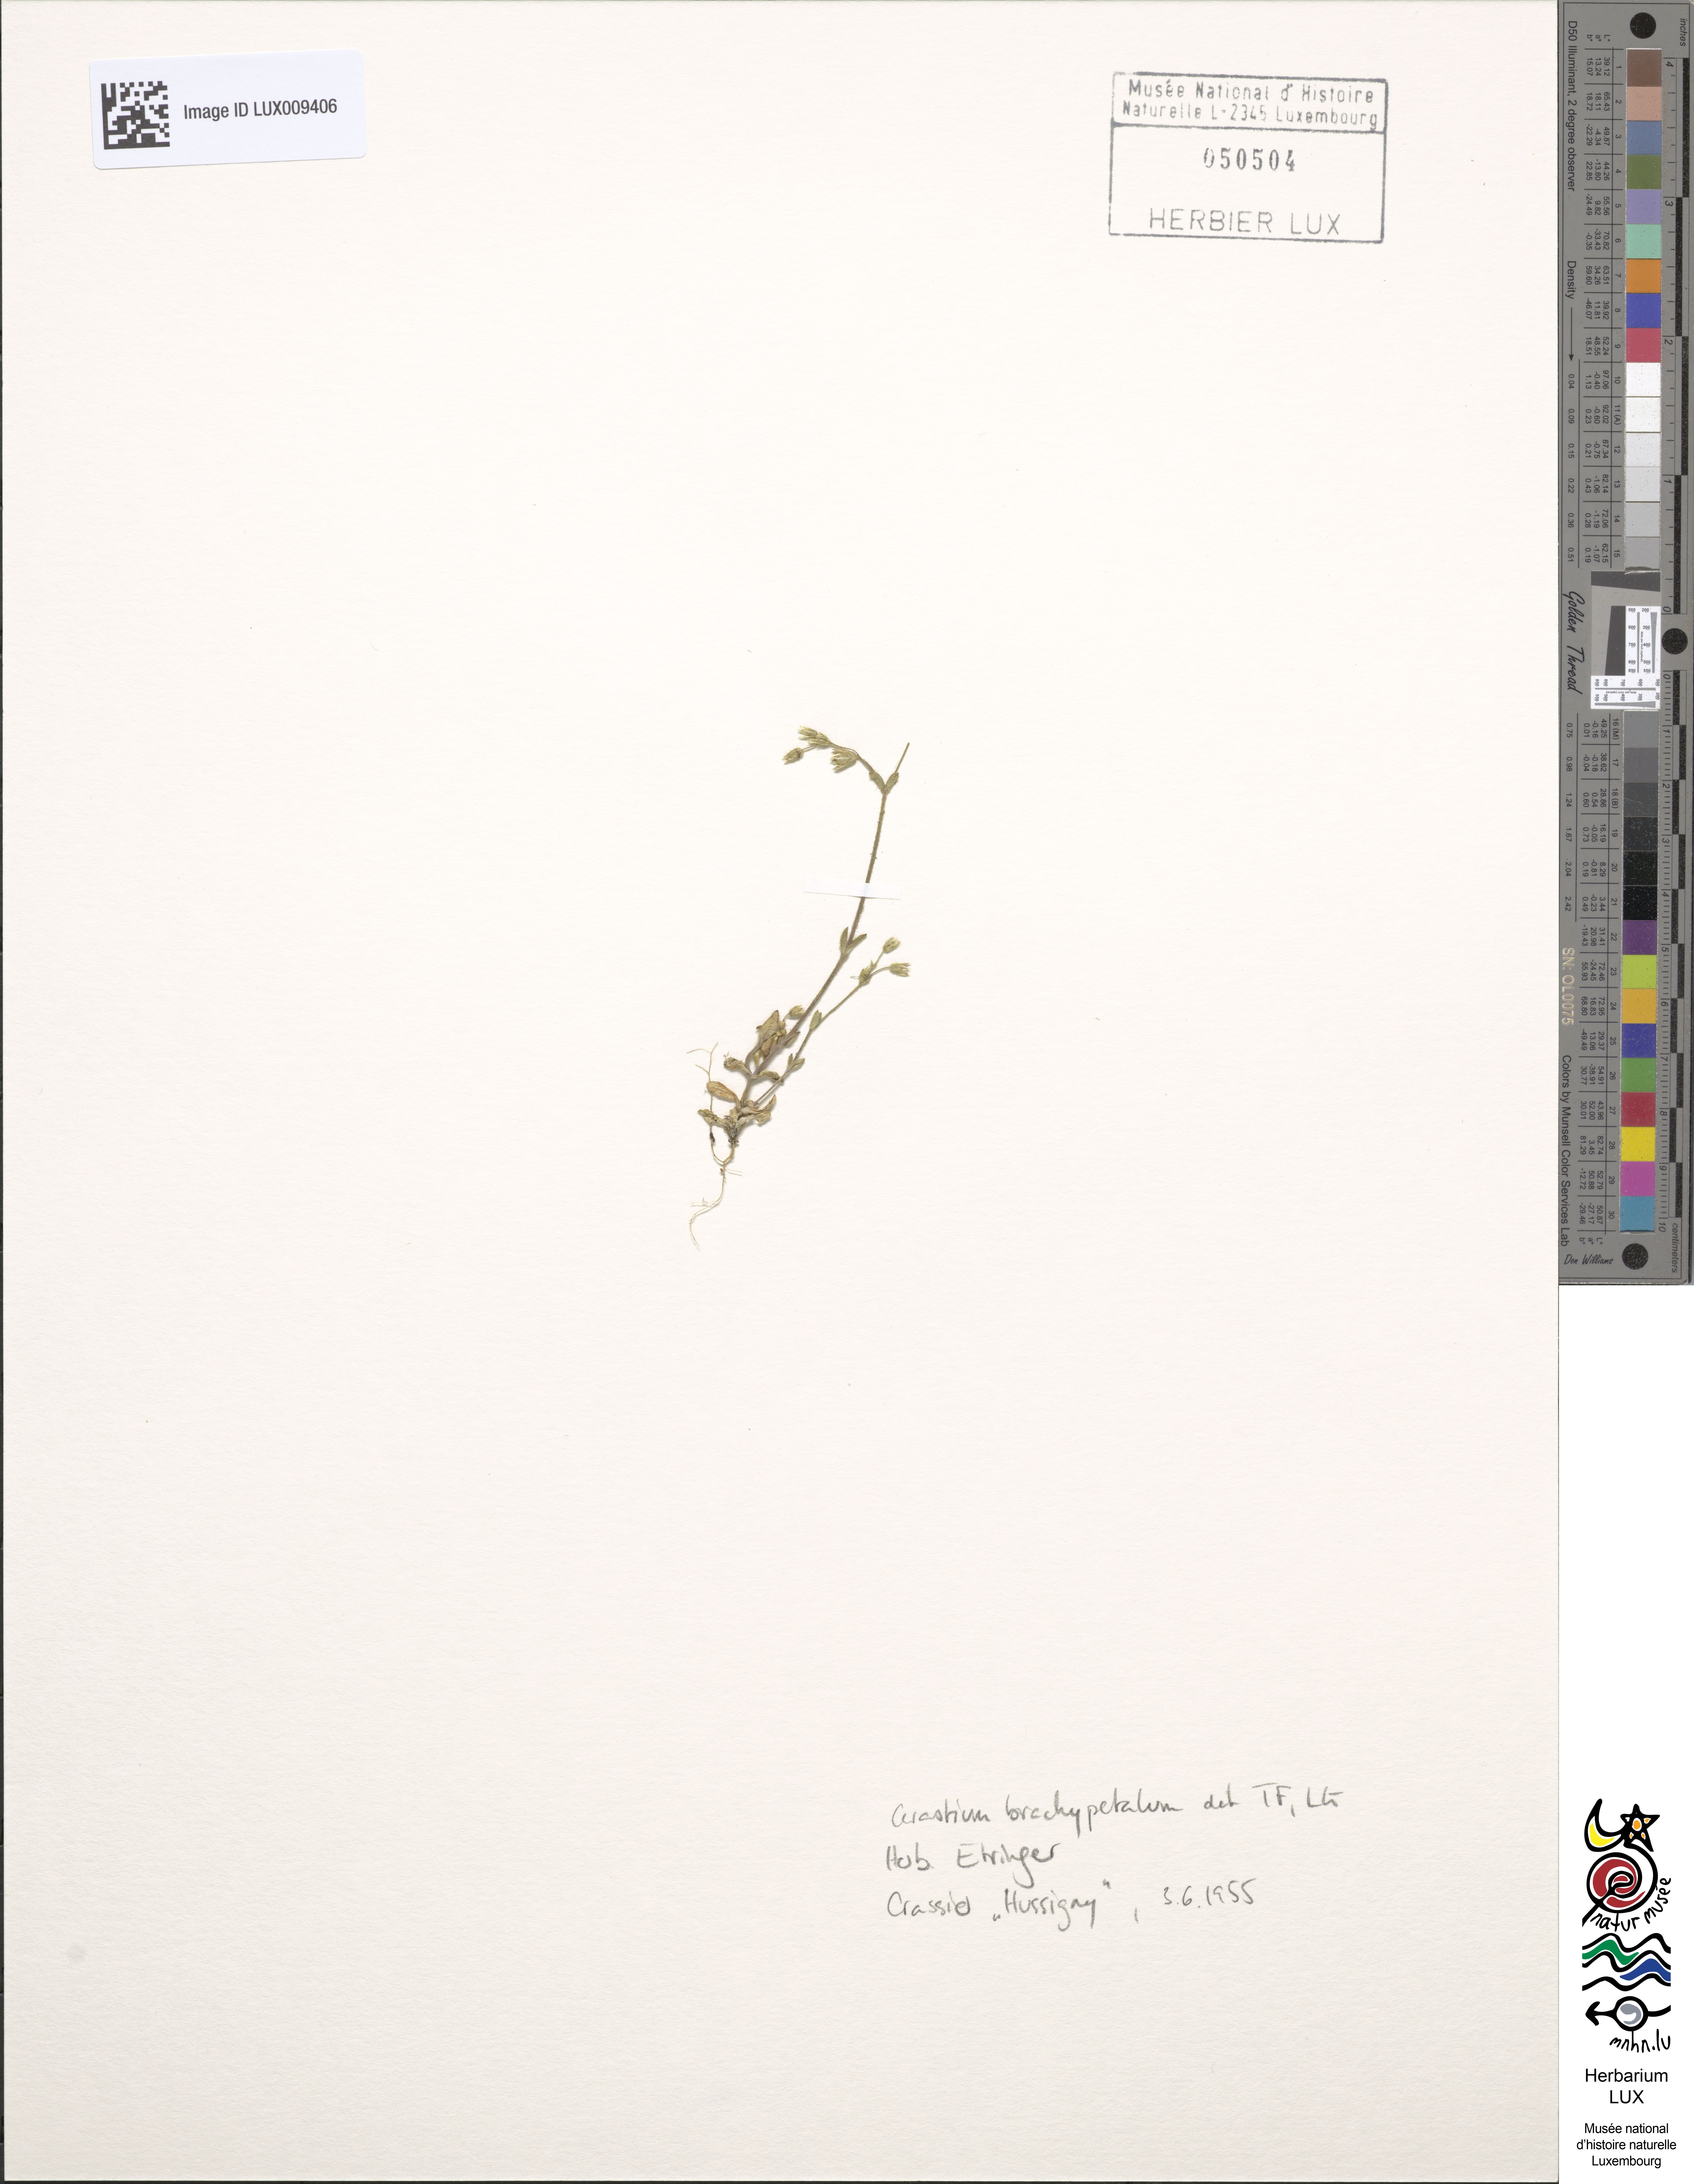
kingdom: Plantae
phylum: Tracheophyta
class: Magnoliopsida
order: Caryophyllales
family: Caryophyllaceae
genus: Cerastium
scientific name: Cerastium brachypetalum
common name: Grey mouse-ear
